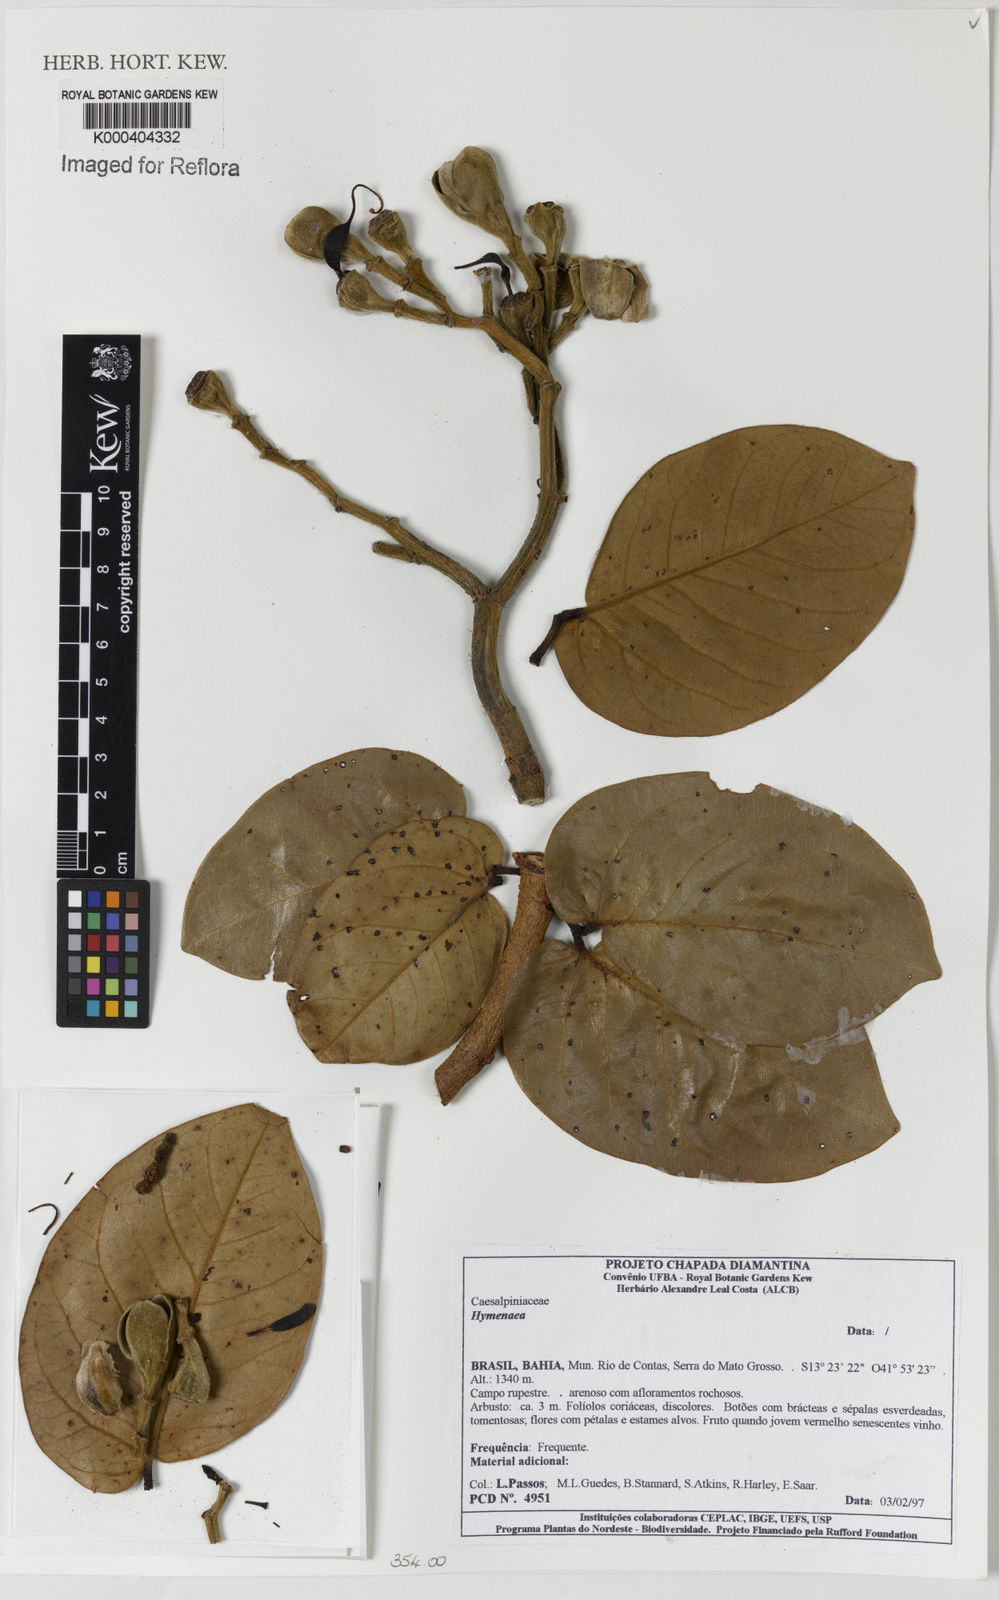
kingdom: Plantae
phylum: Tracheophyta
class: Magnoliopsida
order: Fabales
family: Fabaceae
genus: Hymenaea
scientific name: Hymenaea
